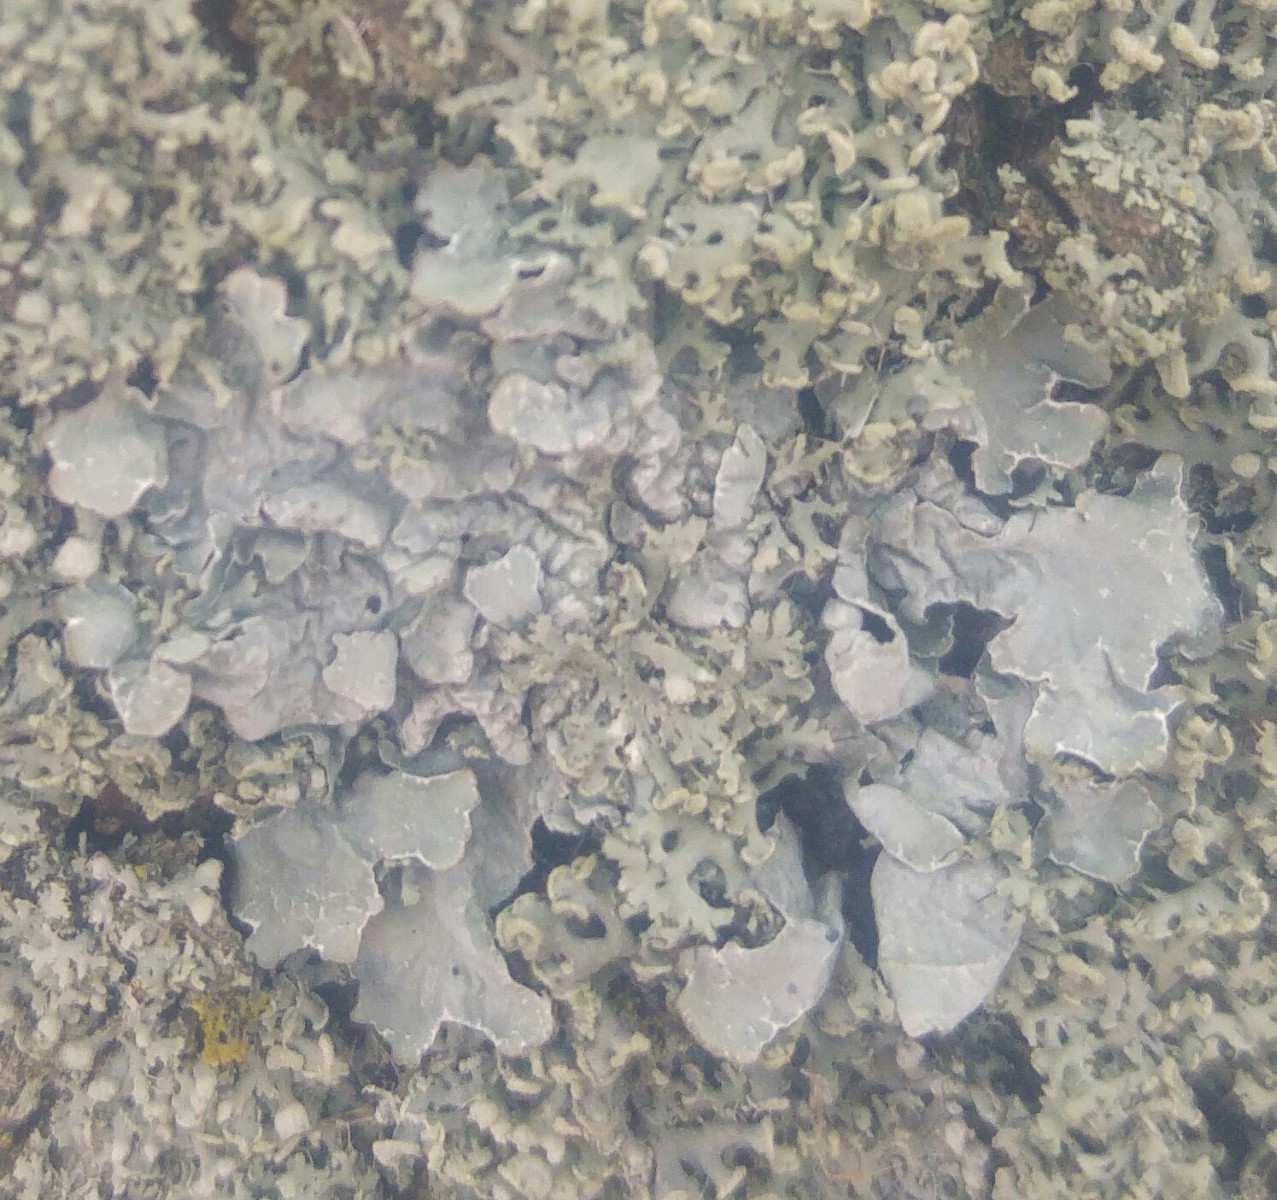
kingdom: Fungi
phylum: Ascomycota
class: Lecanoromycetes
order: Lecanorales
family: Parmeliaceae
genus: Parmelia
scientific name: Parmelia sulcata
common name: rynket skållav
